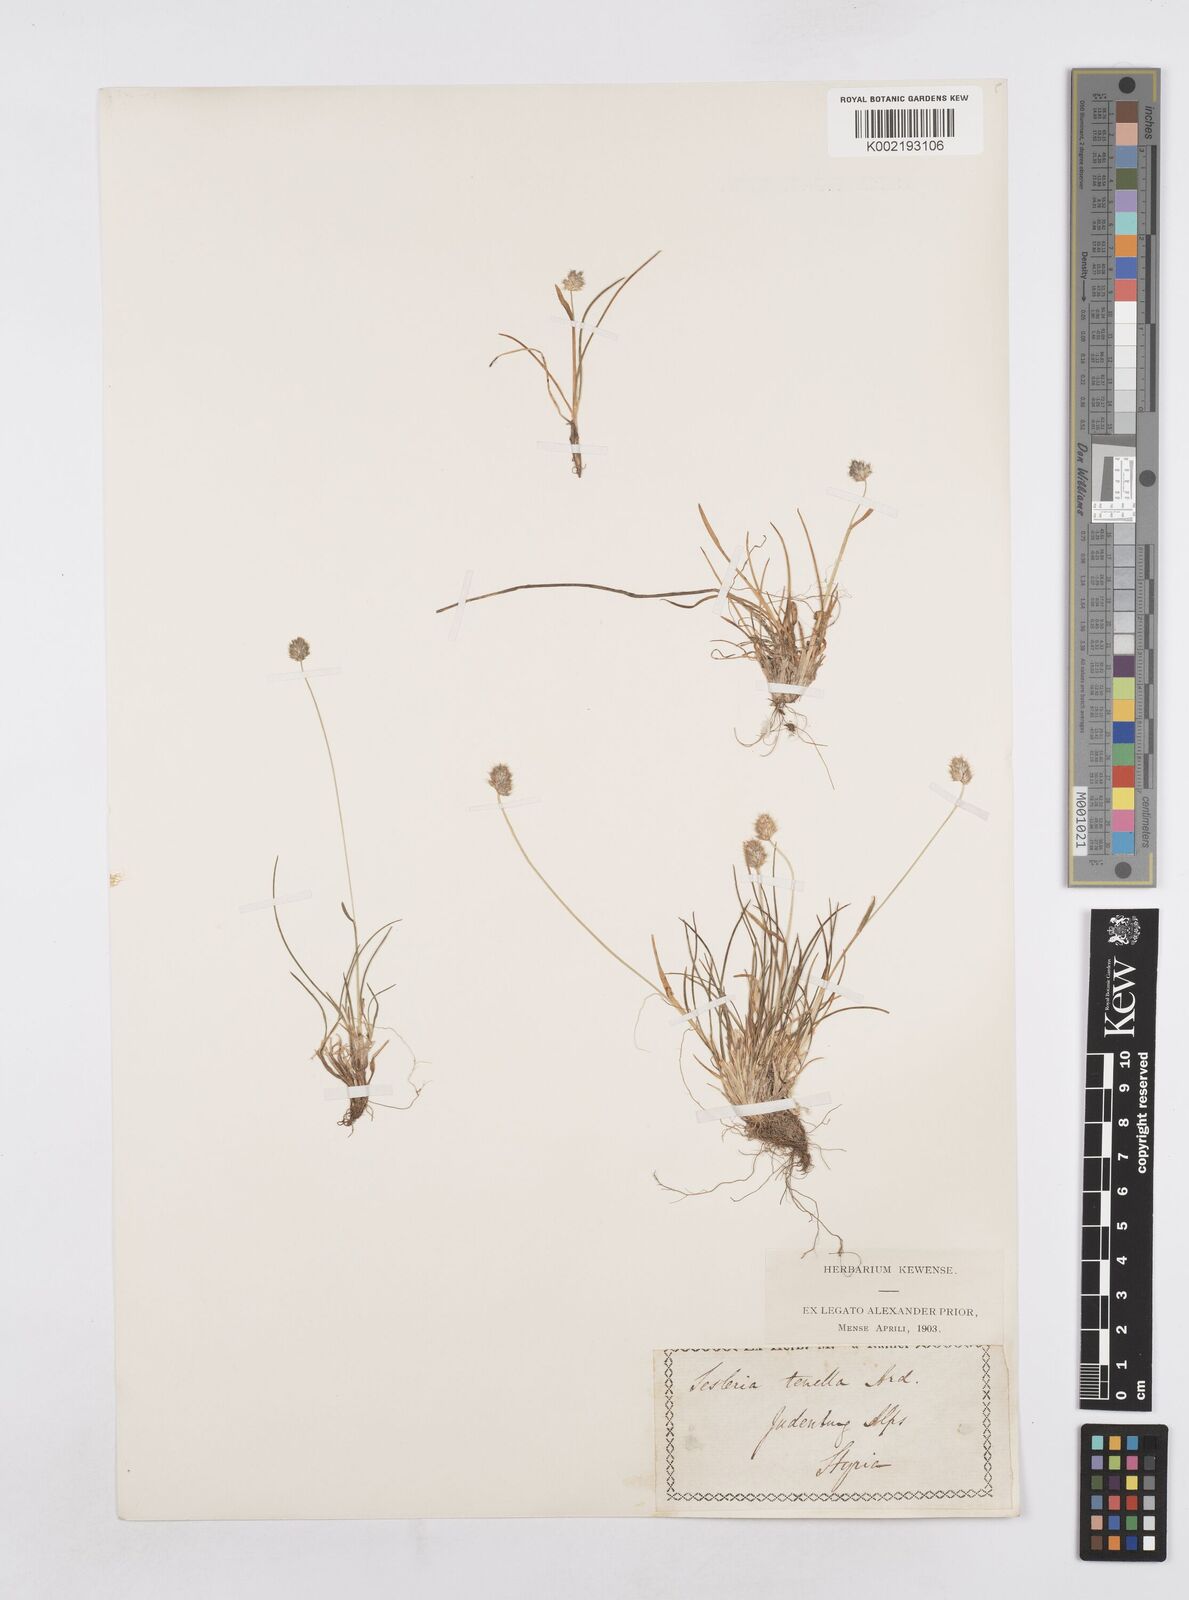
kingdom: Plantae
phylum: Tracheophyta
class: Liliopsida
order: Poales
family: Poaceae
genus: Sesleria
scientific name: Sesleria
